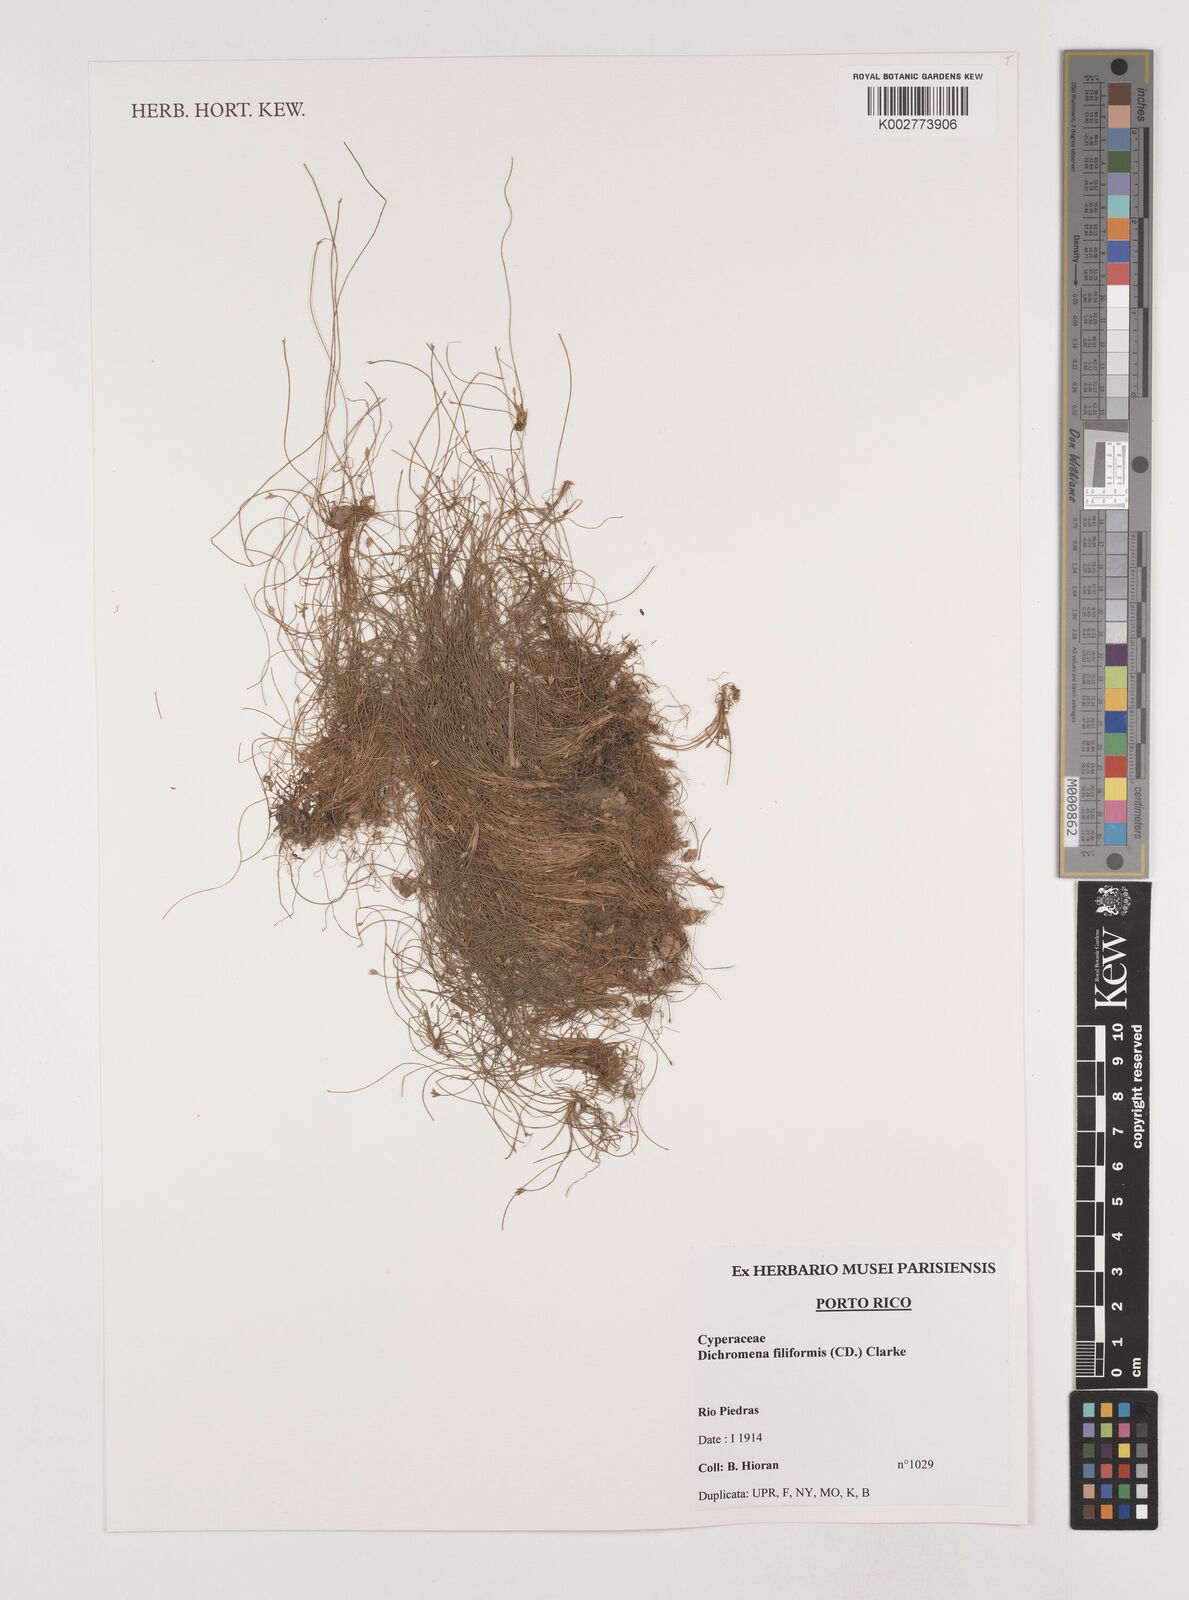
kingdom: Plantae
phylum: Tracheophyta
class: Liliopsida
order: Poales
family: Cyperaceae
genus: Rhynchospora
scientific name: Rhynchospora berteroi
